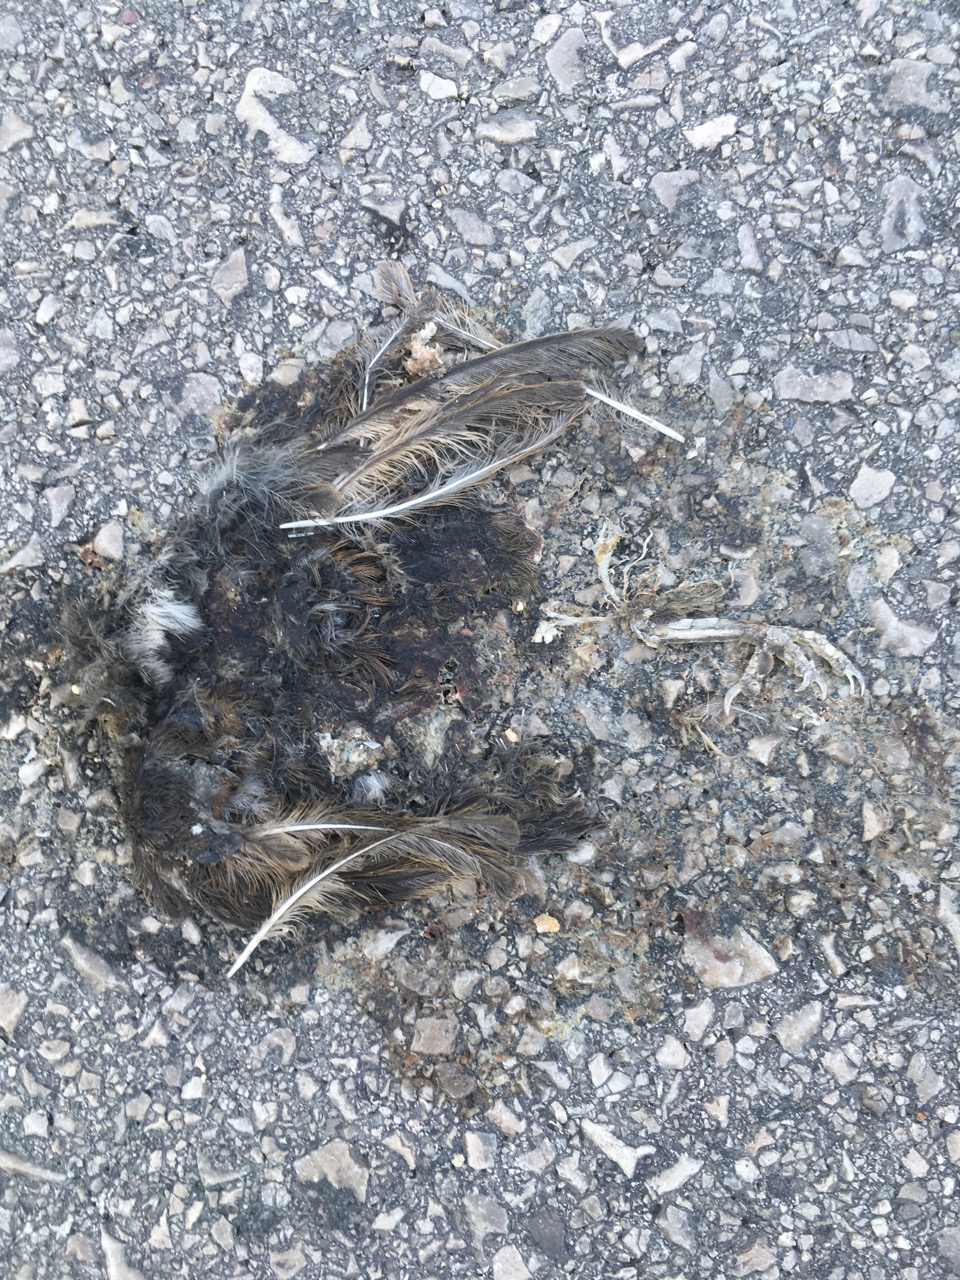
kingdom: Animalia
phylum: Chordata
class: Aves
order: Passeriformes
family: Passeridae
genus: Passer
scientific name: Passer
